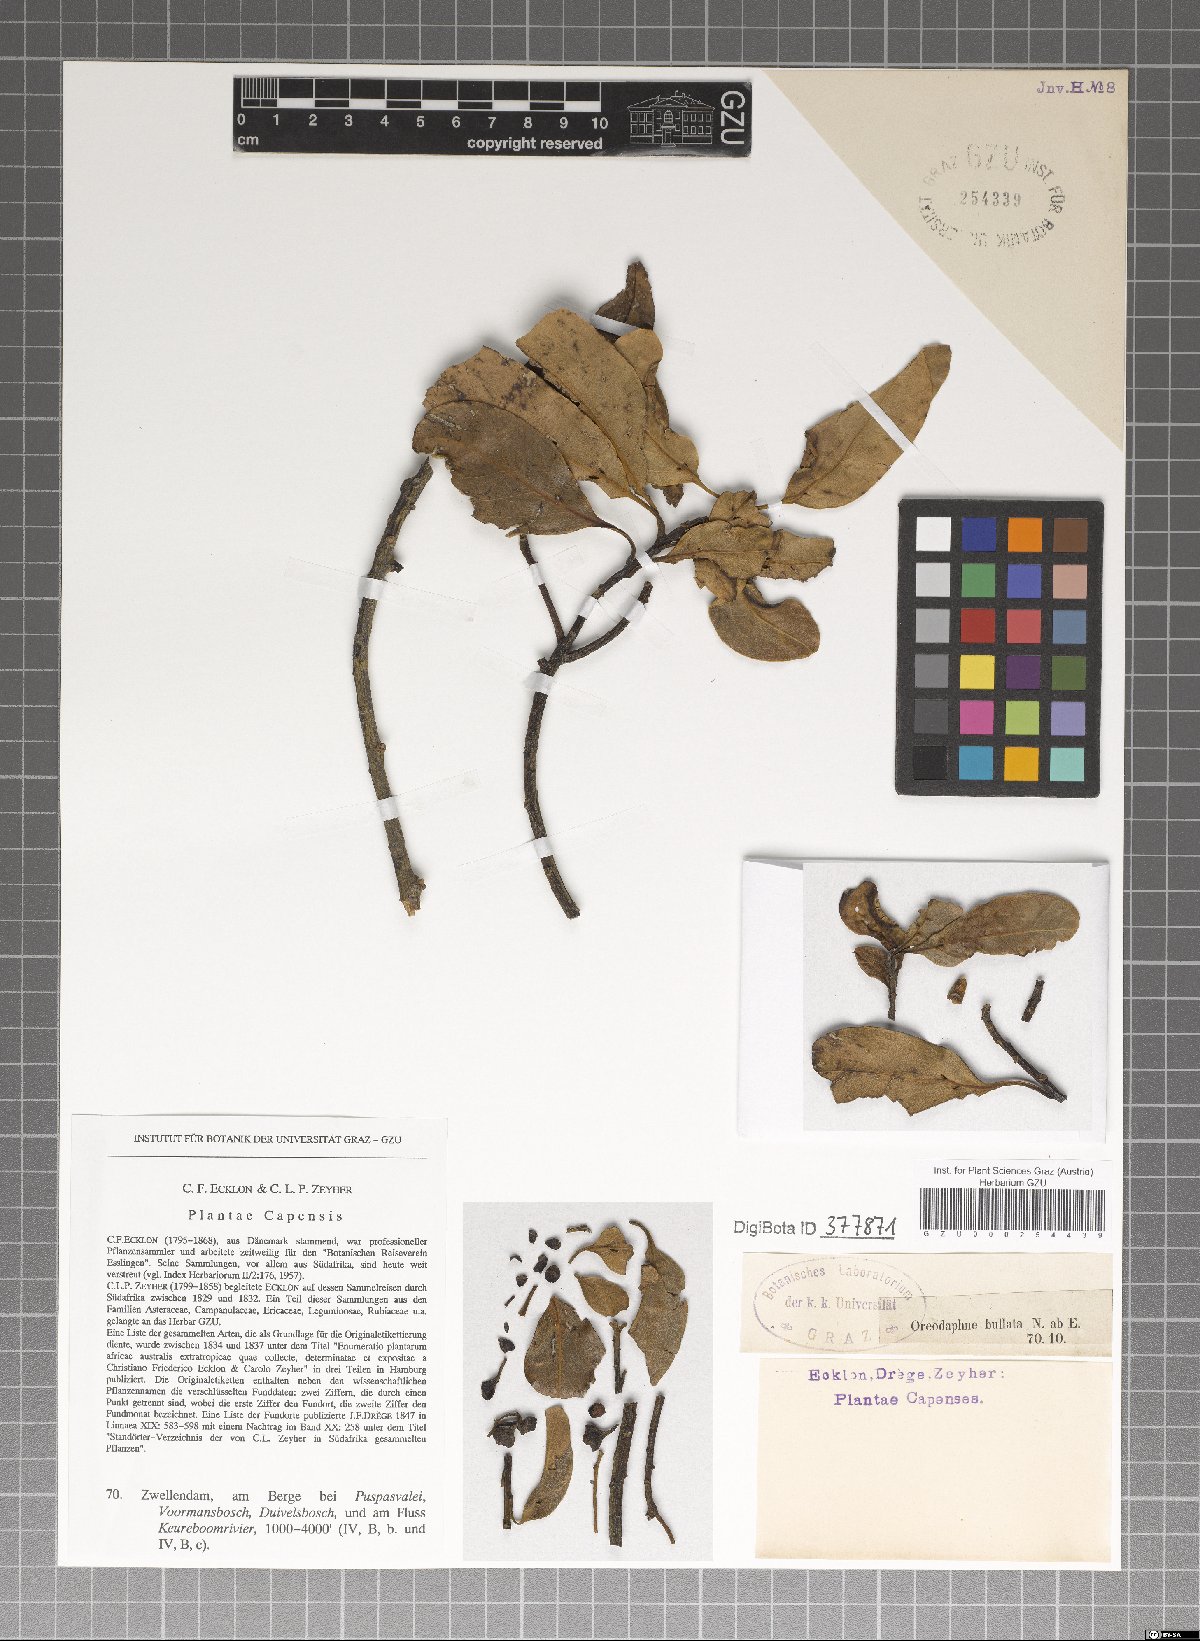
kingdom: Plantae
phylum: Tracheophyta
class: Magnoliopsida
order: Laurales
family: Lauraceae
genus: Sassafras
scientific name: Sassafras albidum
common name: Sassafras
